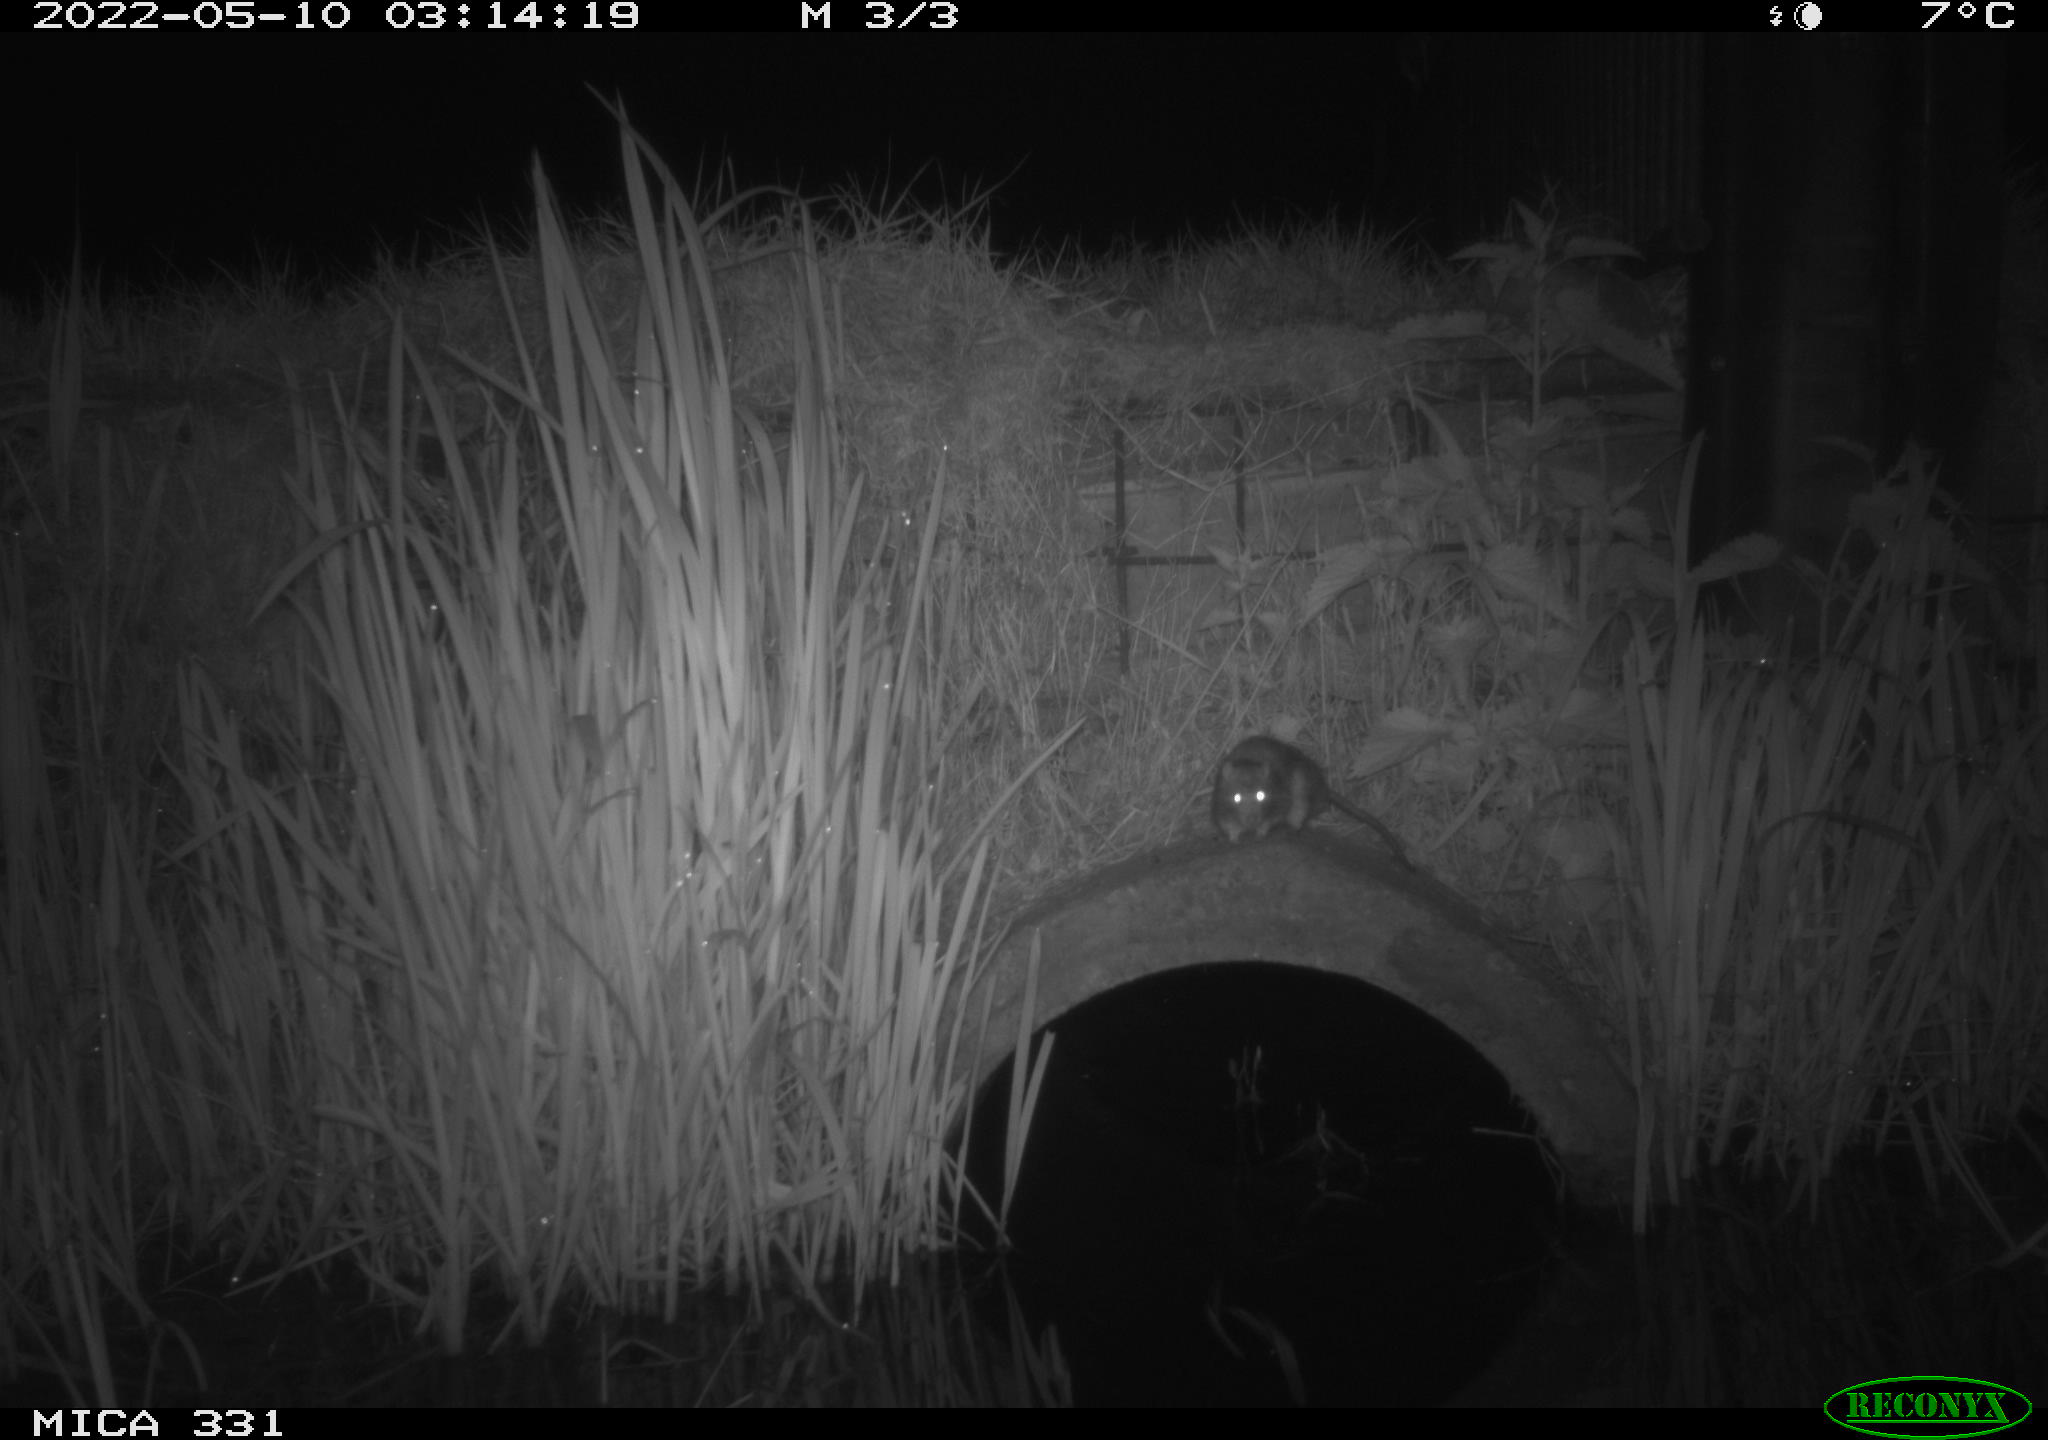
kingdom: Animalia
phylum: Chordata
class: Mammalia
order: Rodentia
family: Muridae
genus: Rattus
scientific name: Rattus norvegicus
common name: Brown rat
